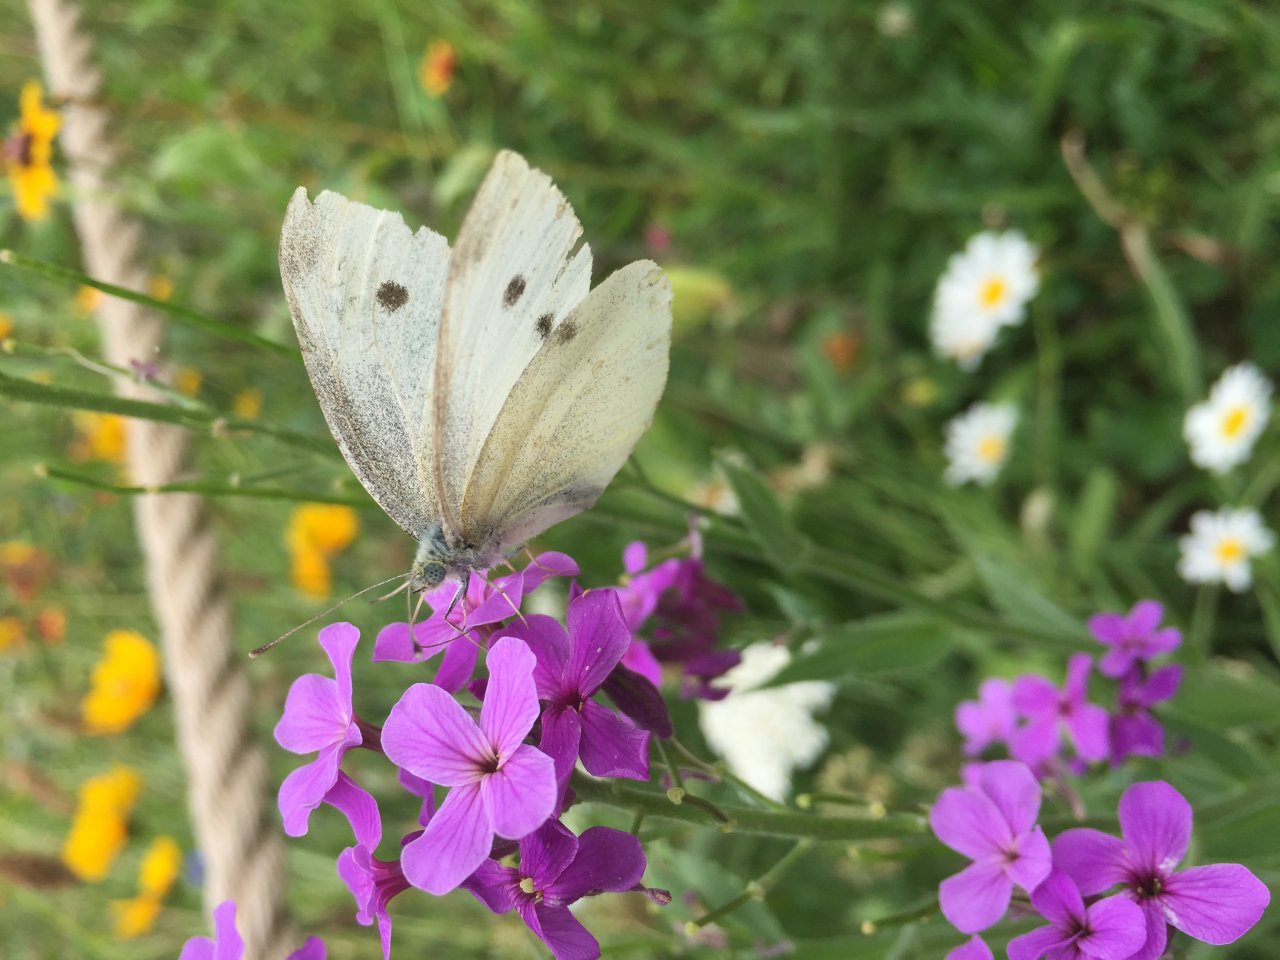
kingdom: Animalia
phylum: Arthropoda
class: Insecta
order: Lepidoptera
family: Pieridae
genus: Pieris
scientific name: Pieris rapae
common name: Cabbage White
